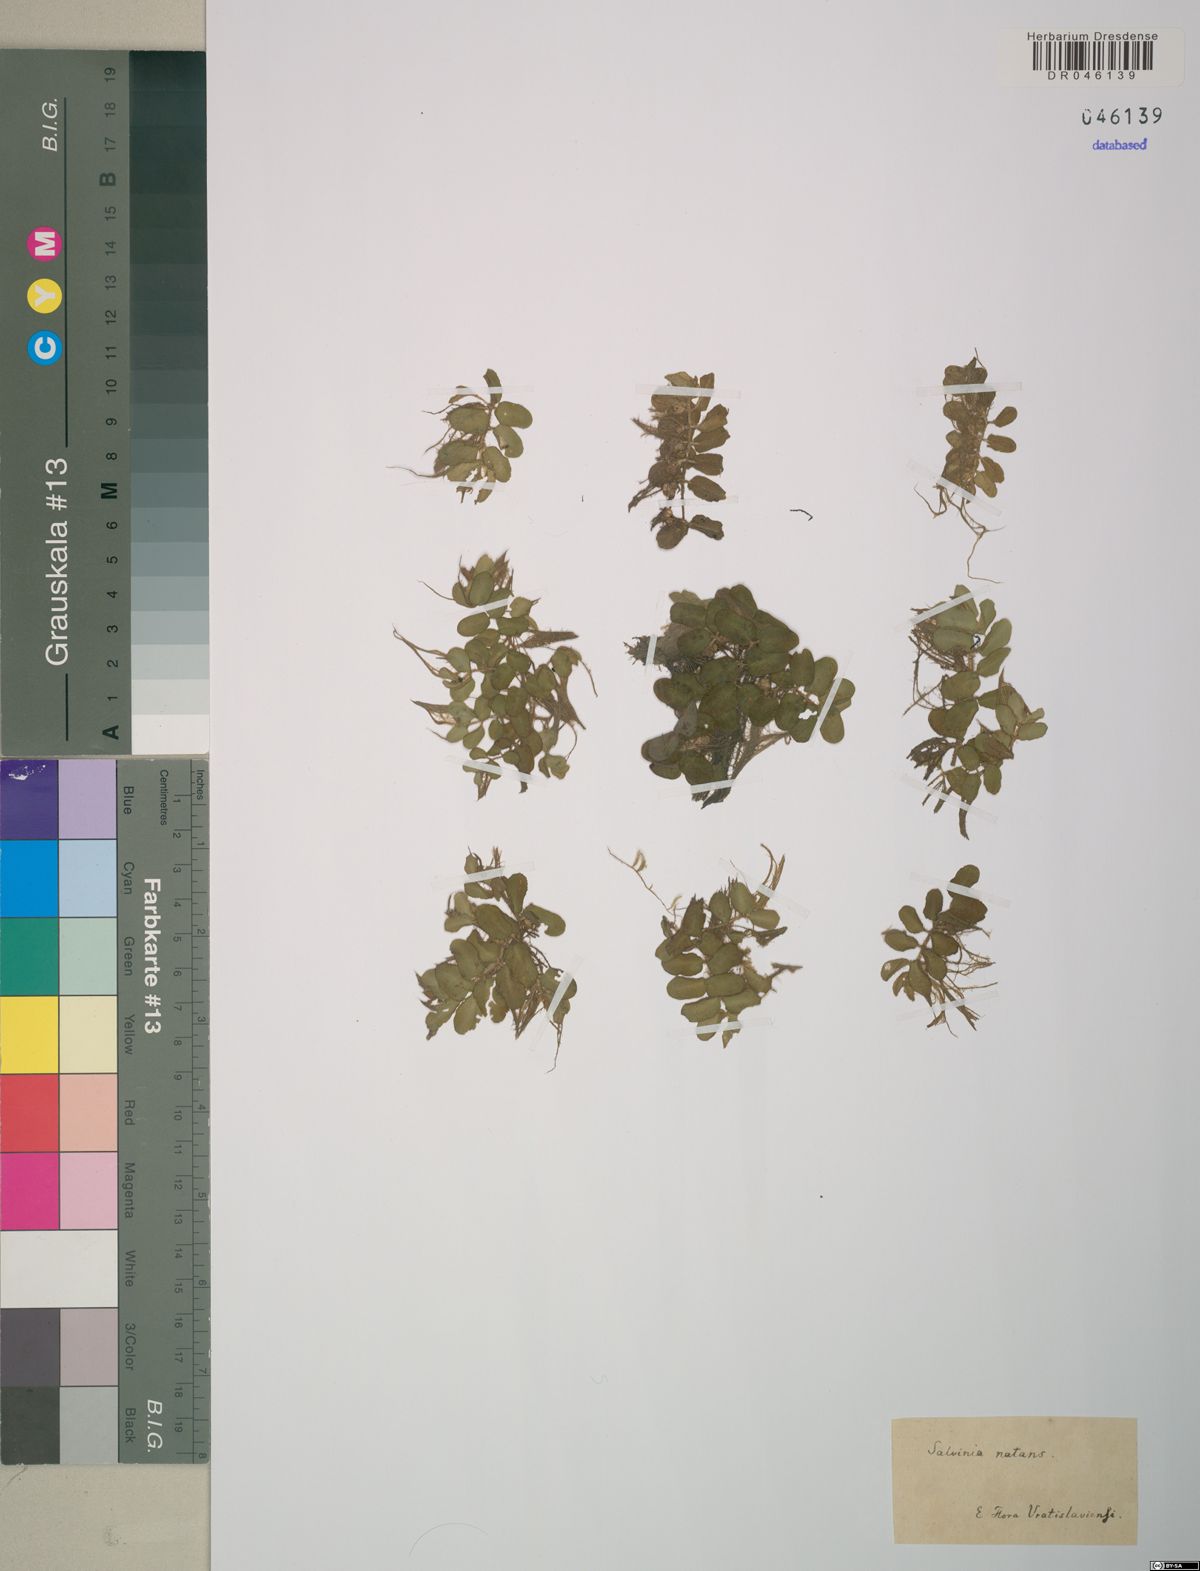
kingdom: Plantae
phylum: Tracheophyta
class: Polypodiopsida
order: Salviniales
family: Salviniaceae
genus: Salvinia
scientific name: Salvinia natans
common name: Floating fern
